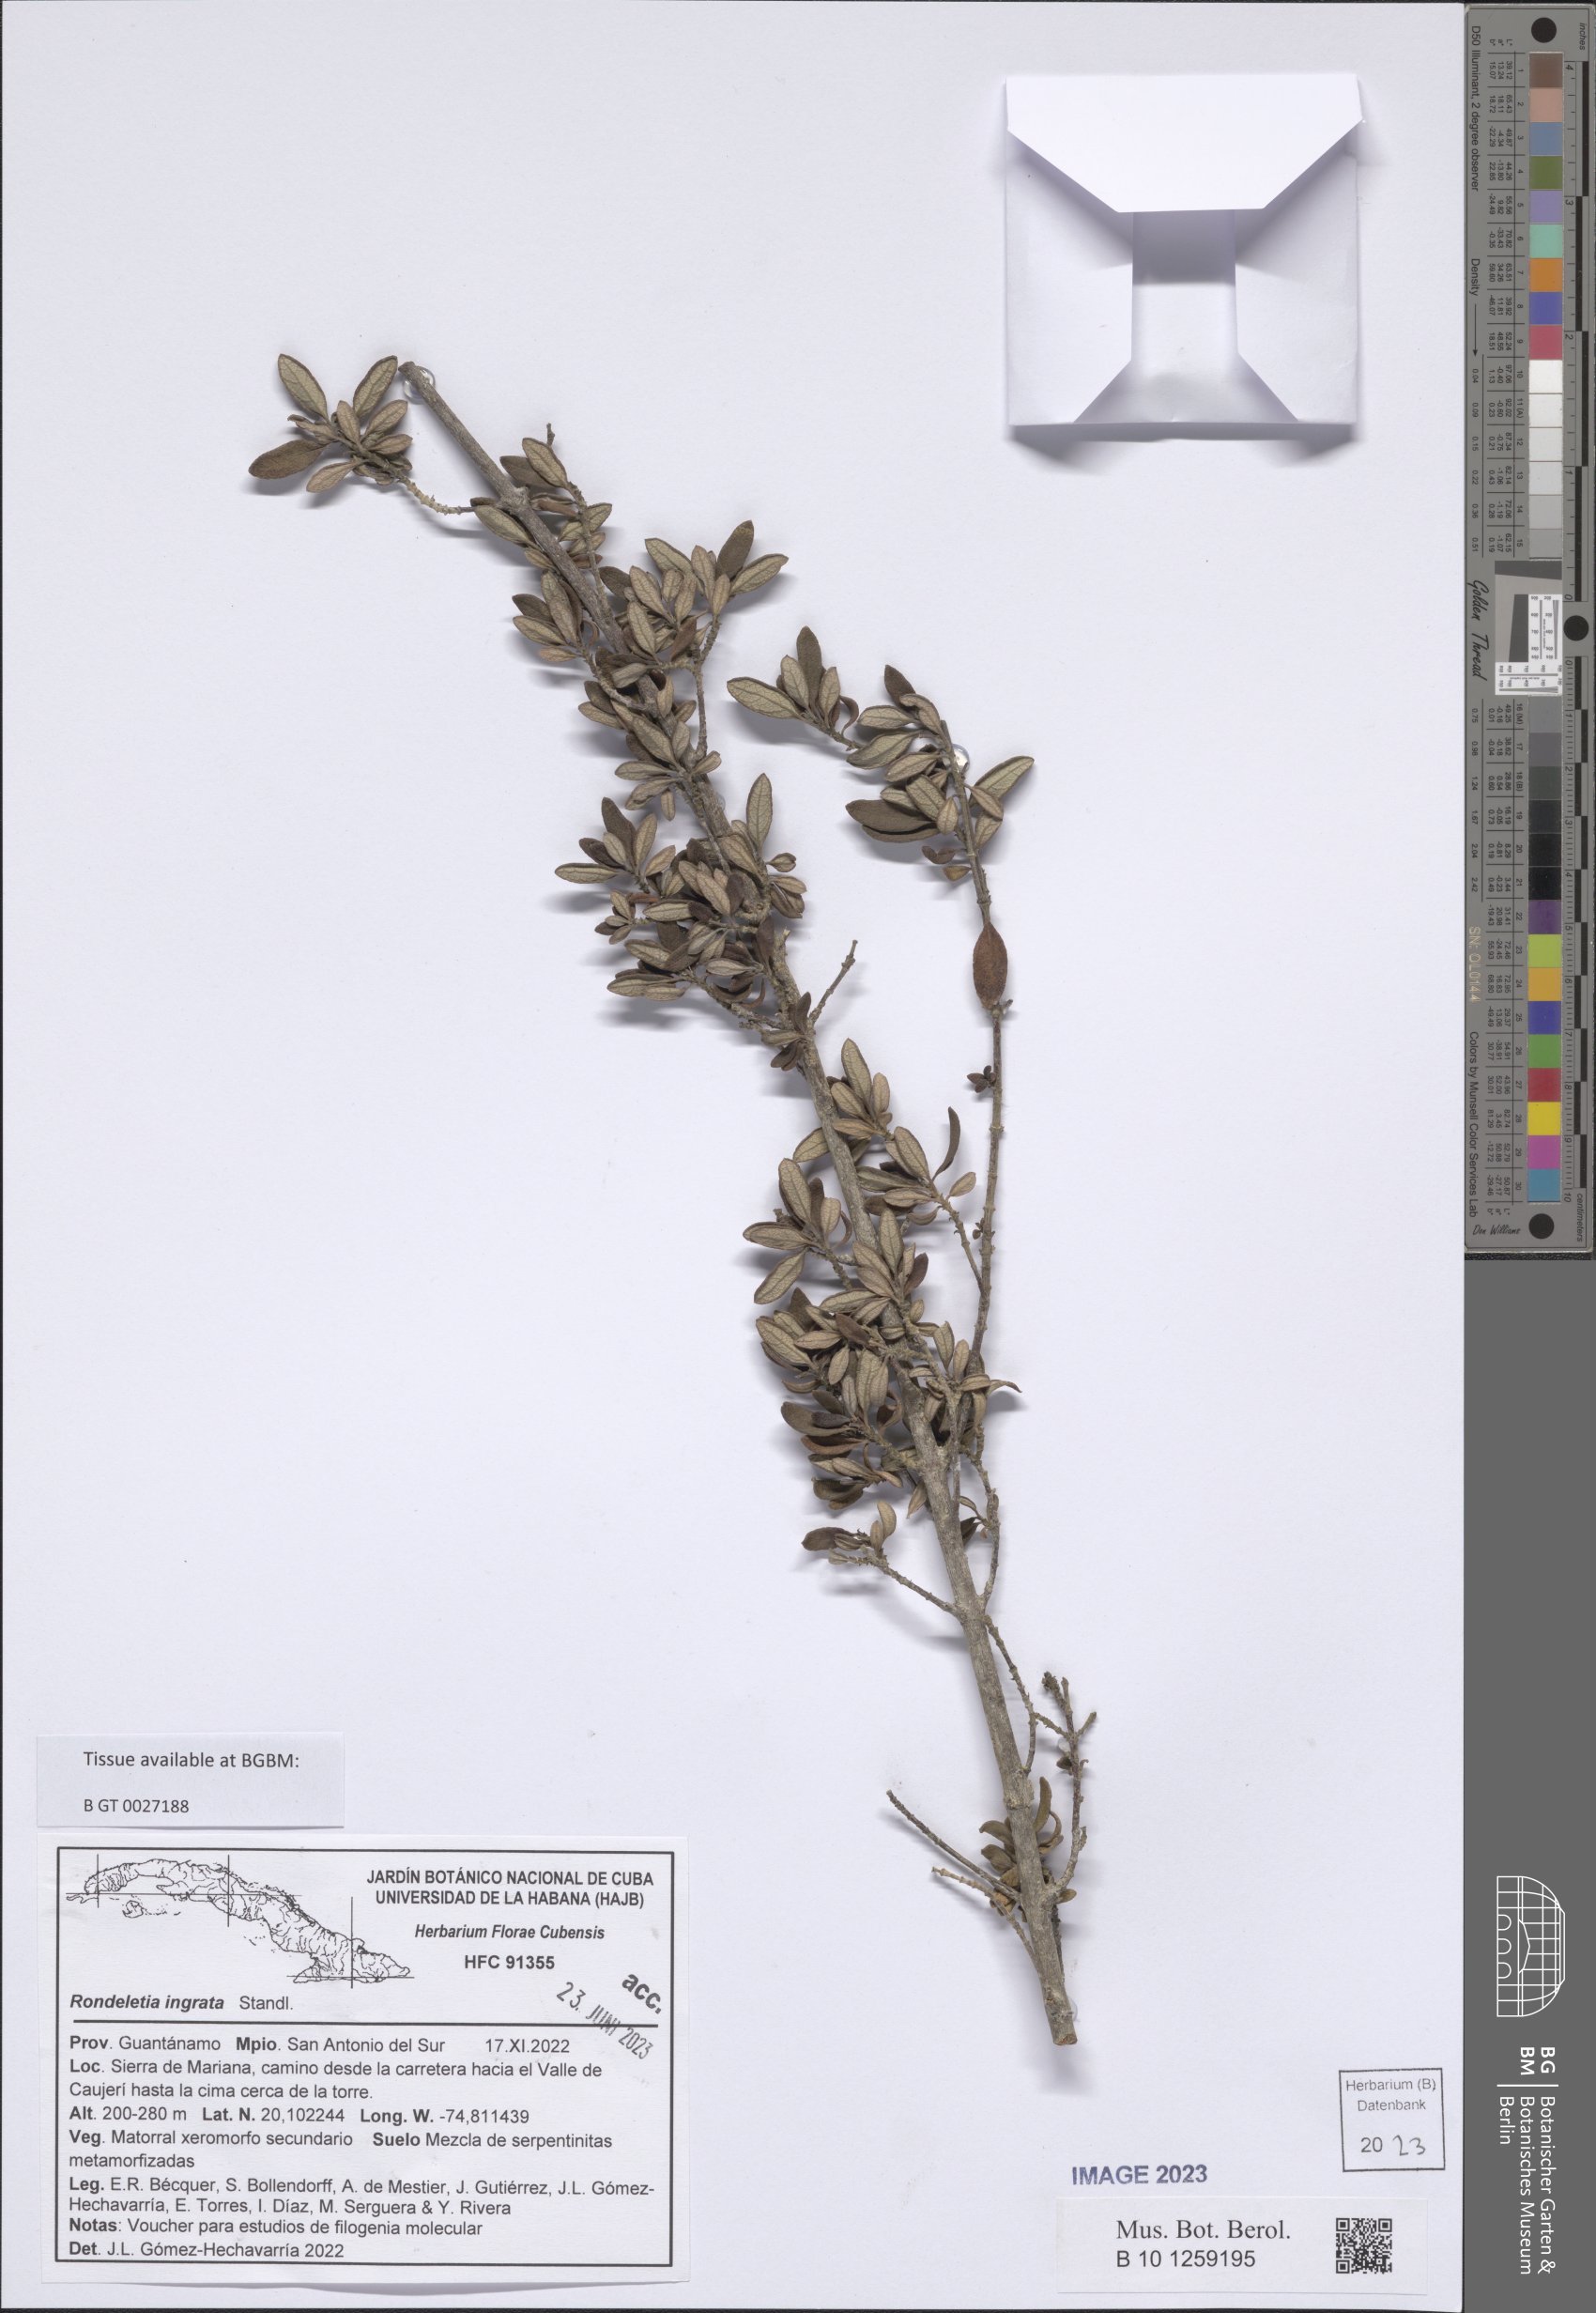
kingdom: Plantae
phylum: Tracheophyta
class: Magnoliopsida
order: Gentianales
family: Rubiaceae
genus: Rondeletia
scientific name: Rondeletia ingrata
